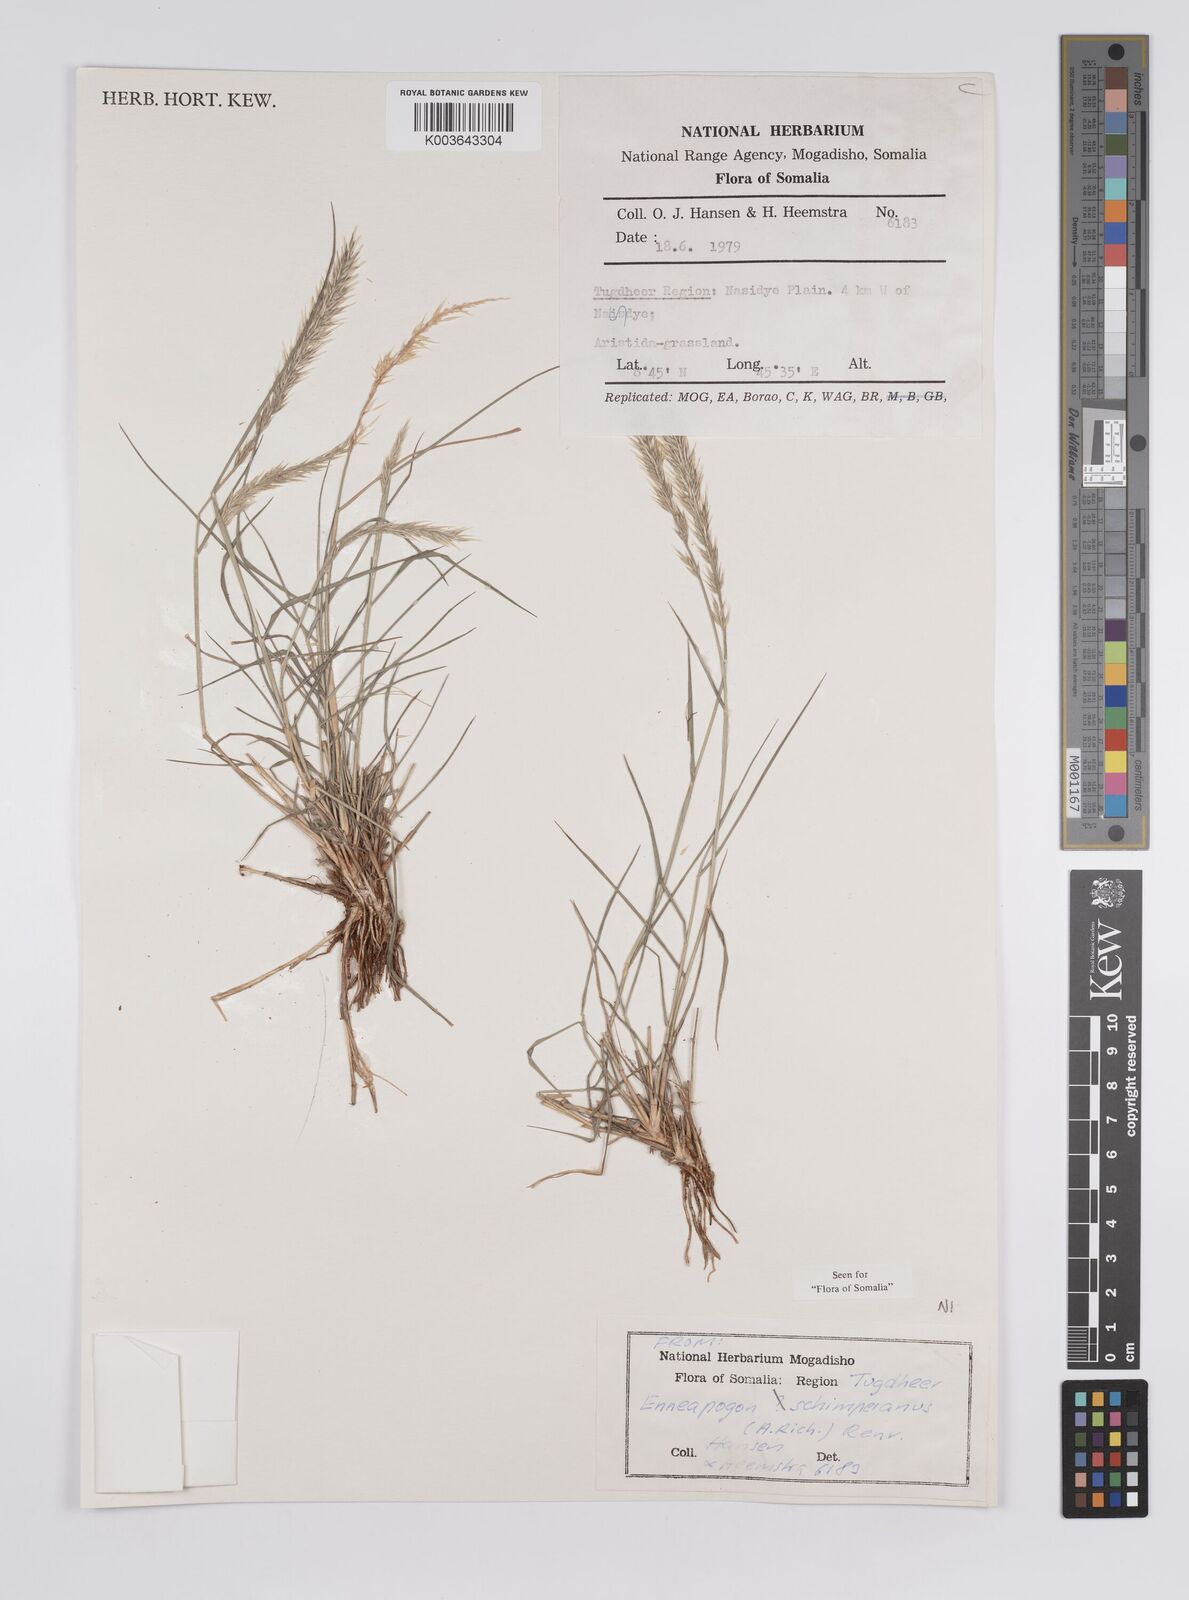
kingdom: Plantae
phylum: Tracheophyta
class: Liliopsida
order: Poales
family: Poaceae
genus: Enneapogon
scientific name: Enneapogon persicus
